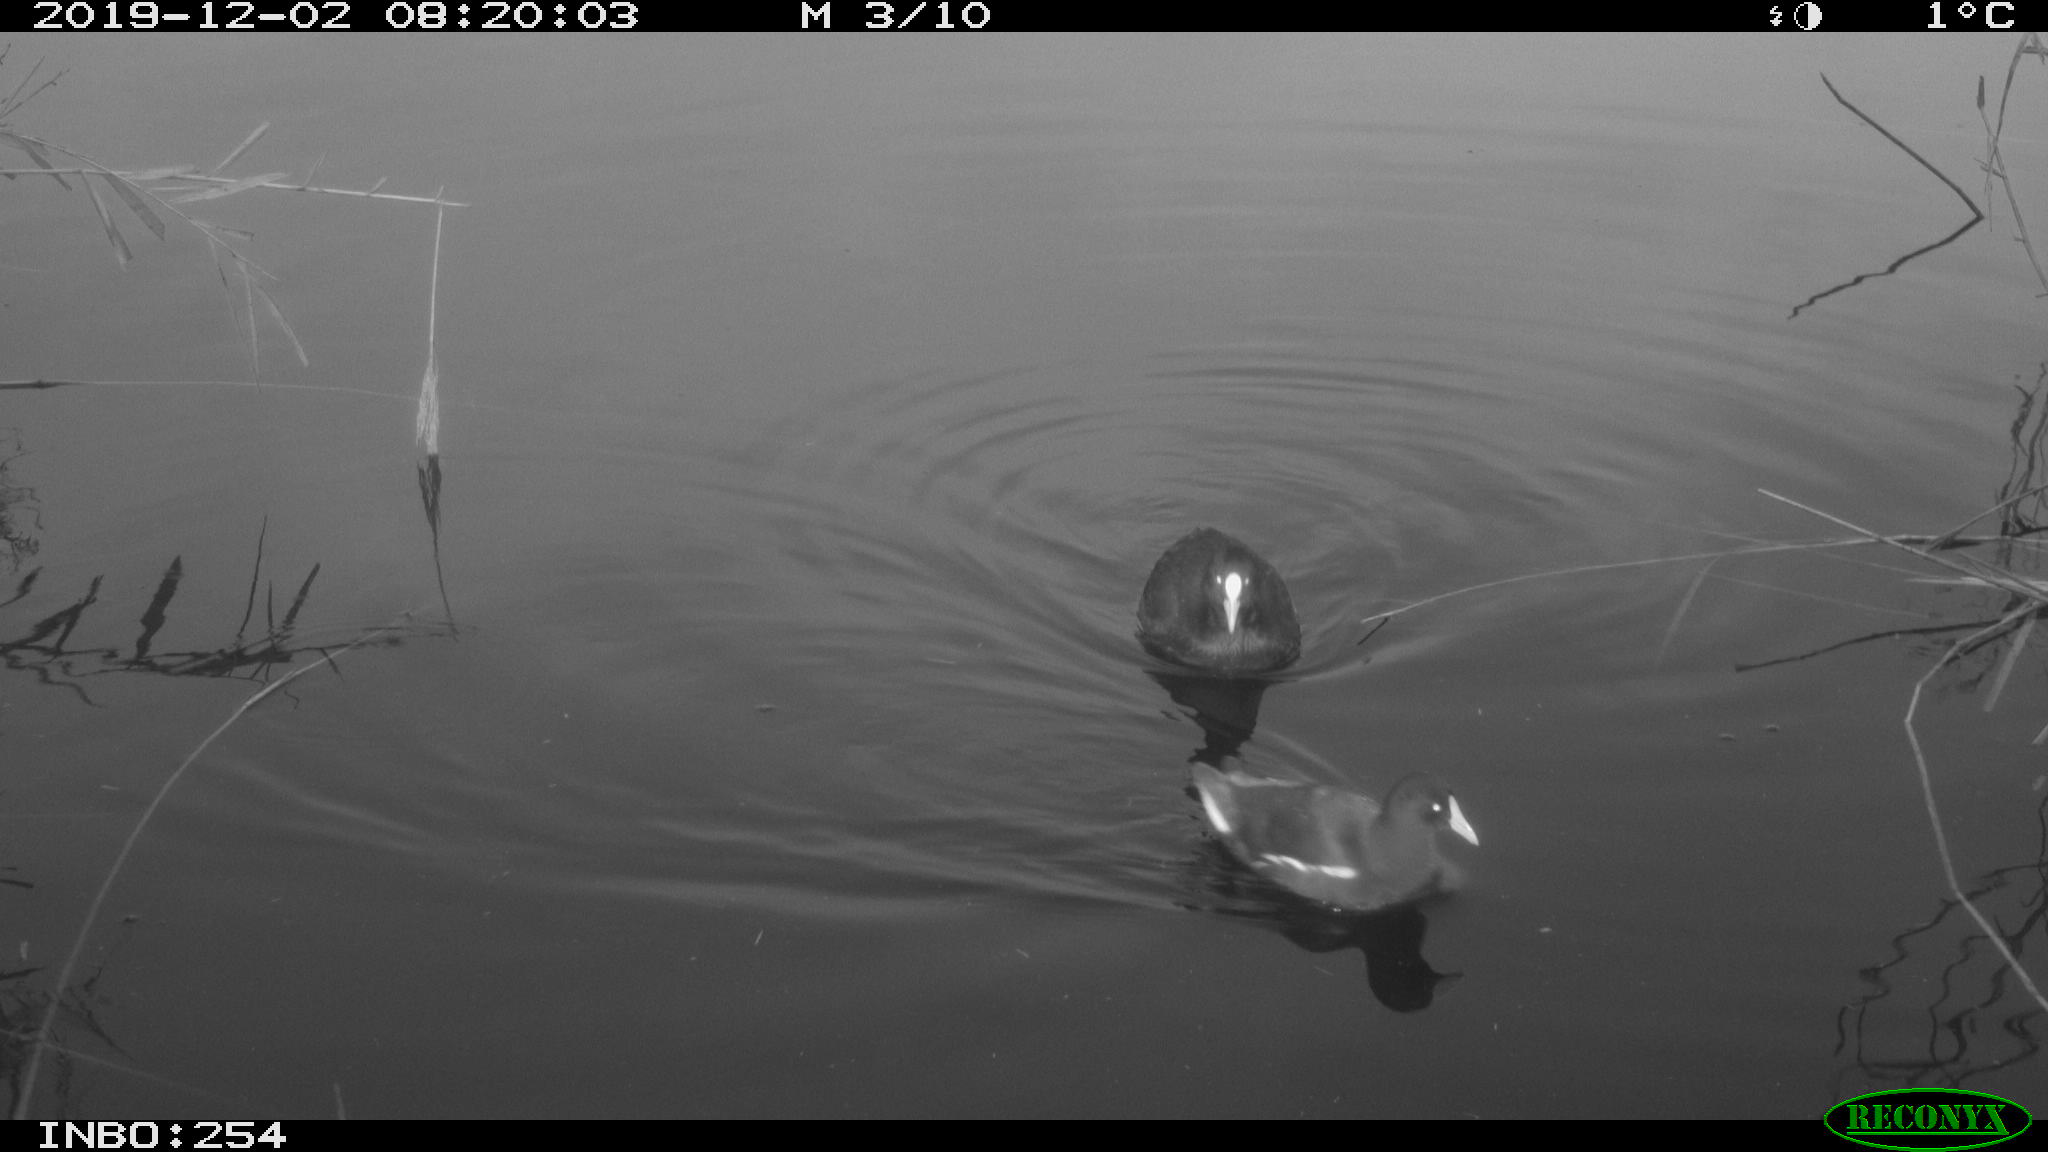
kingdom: Animalia
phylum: Chordata
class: Aves
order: Gruiformes
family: Rallidae
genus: Fulica
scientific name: Fulica atra
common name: Eurasian coot
